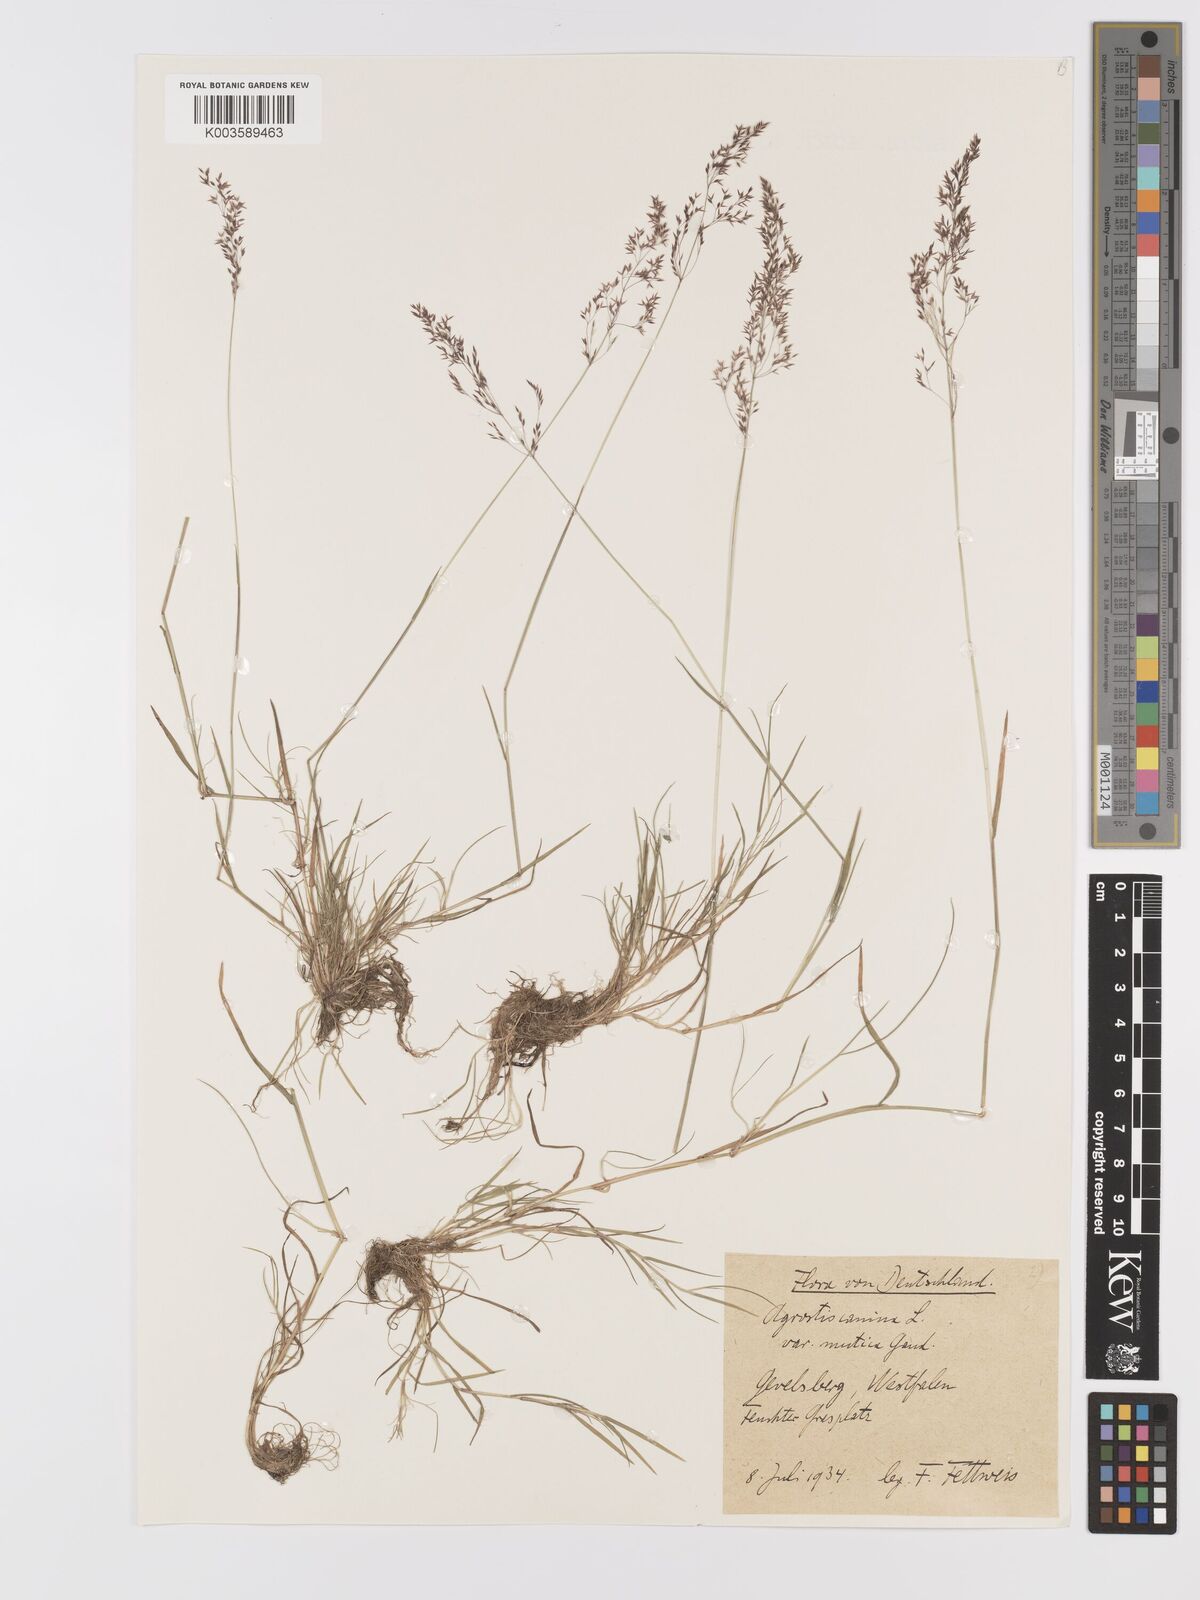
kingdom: Plantae
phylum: Tracheophyta
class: Liliopsida
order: Poales
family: Poaceae
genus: Agrostis
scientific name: Agrostis canina
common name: Velvet bent
